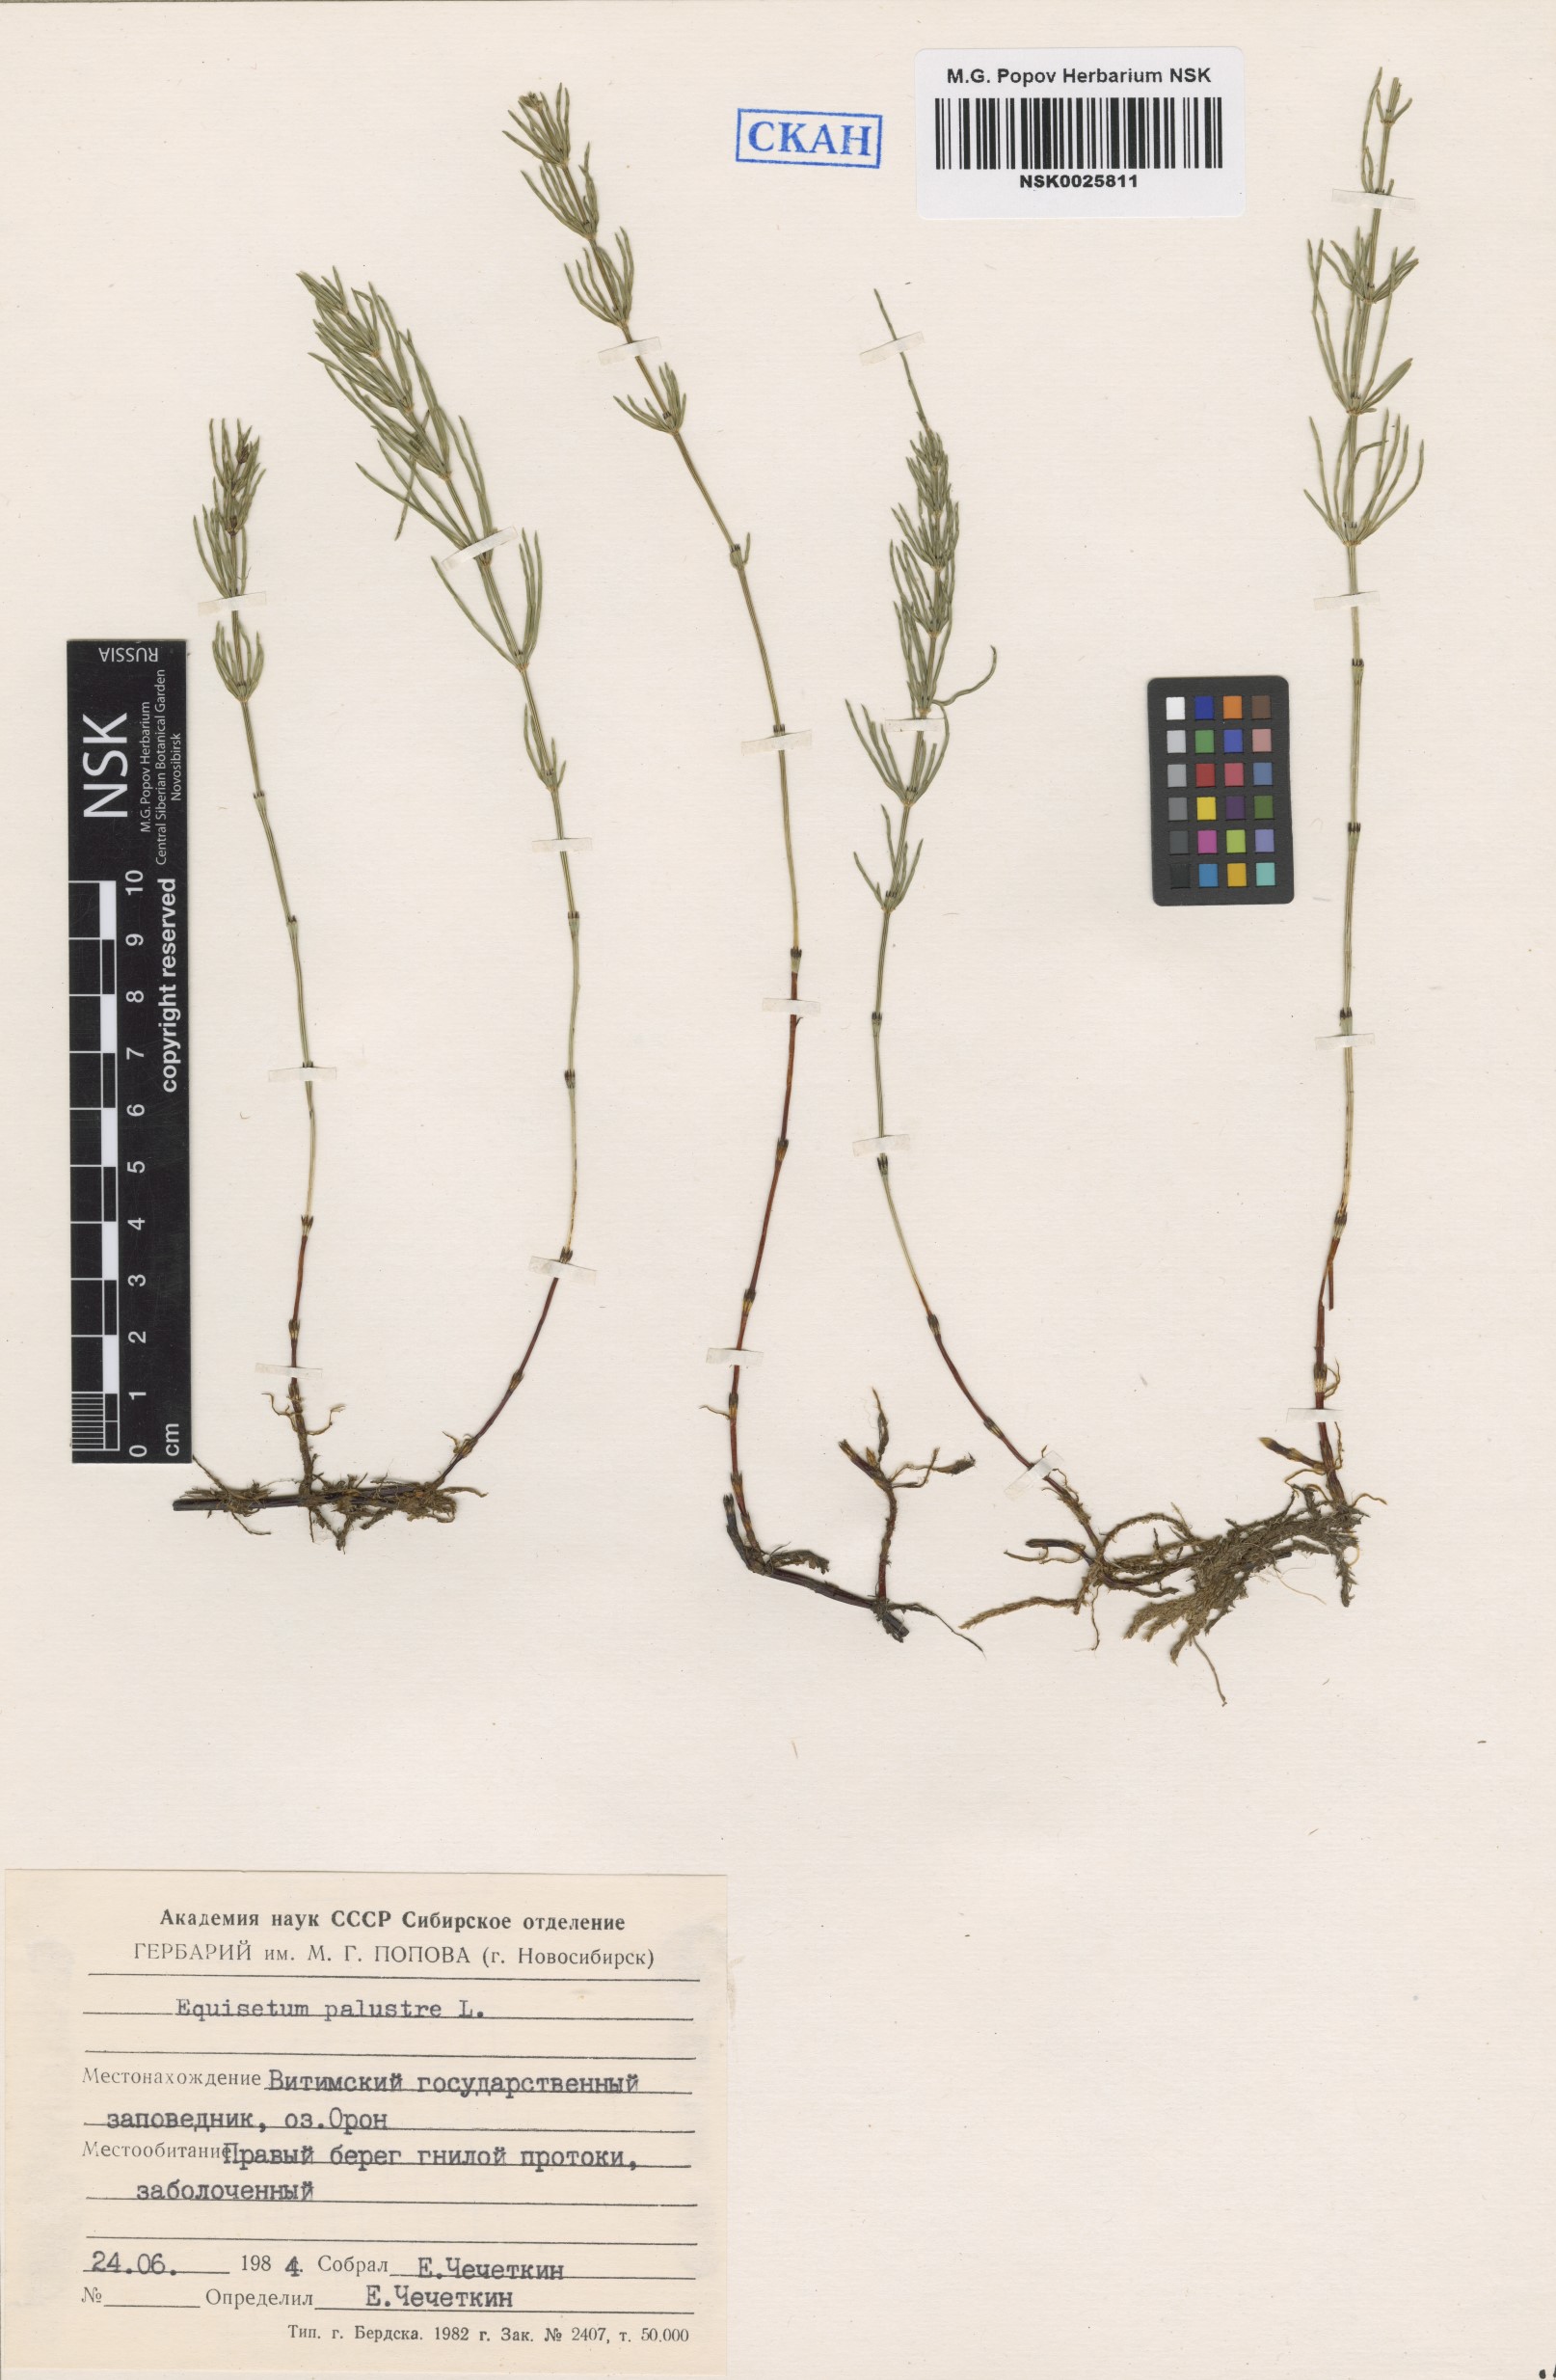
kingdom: Plantae
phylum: Tracheophyta
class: Polypodiopsida
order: Equisetales
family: Equisetaceae
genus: Equisetum
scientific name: Equisetum palustre
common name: Marsh horsetail
